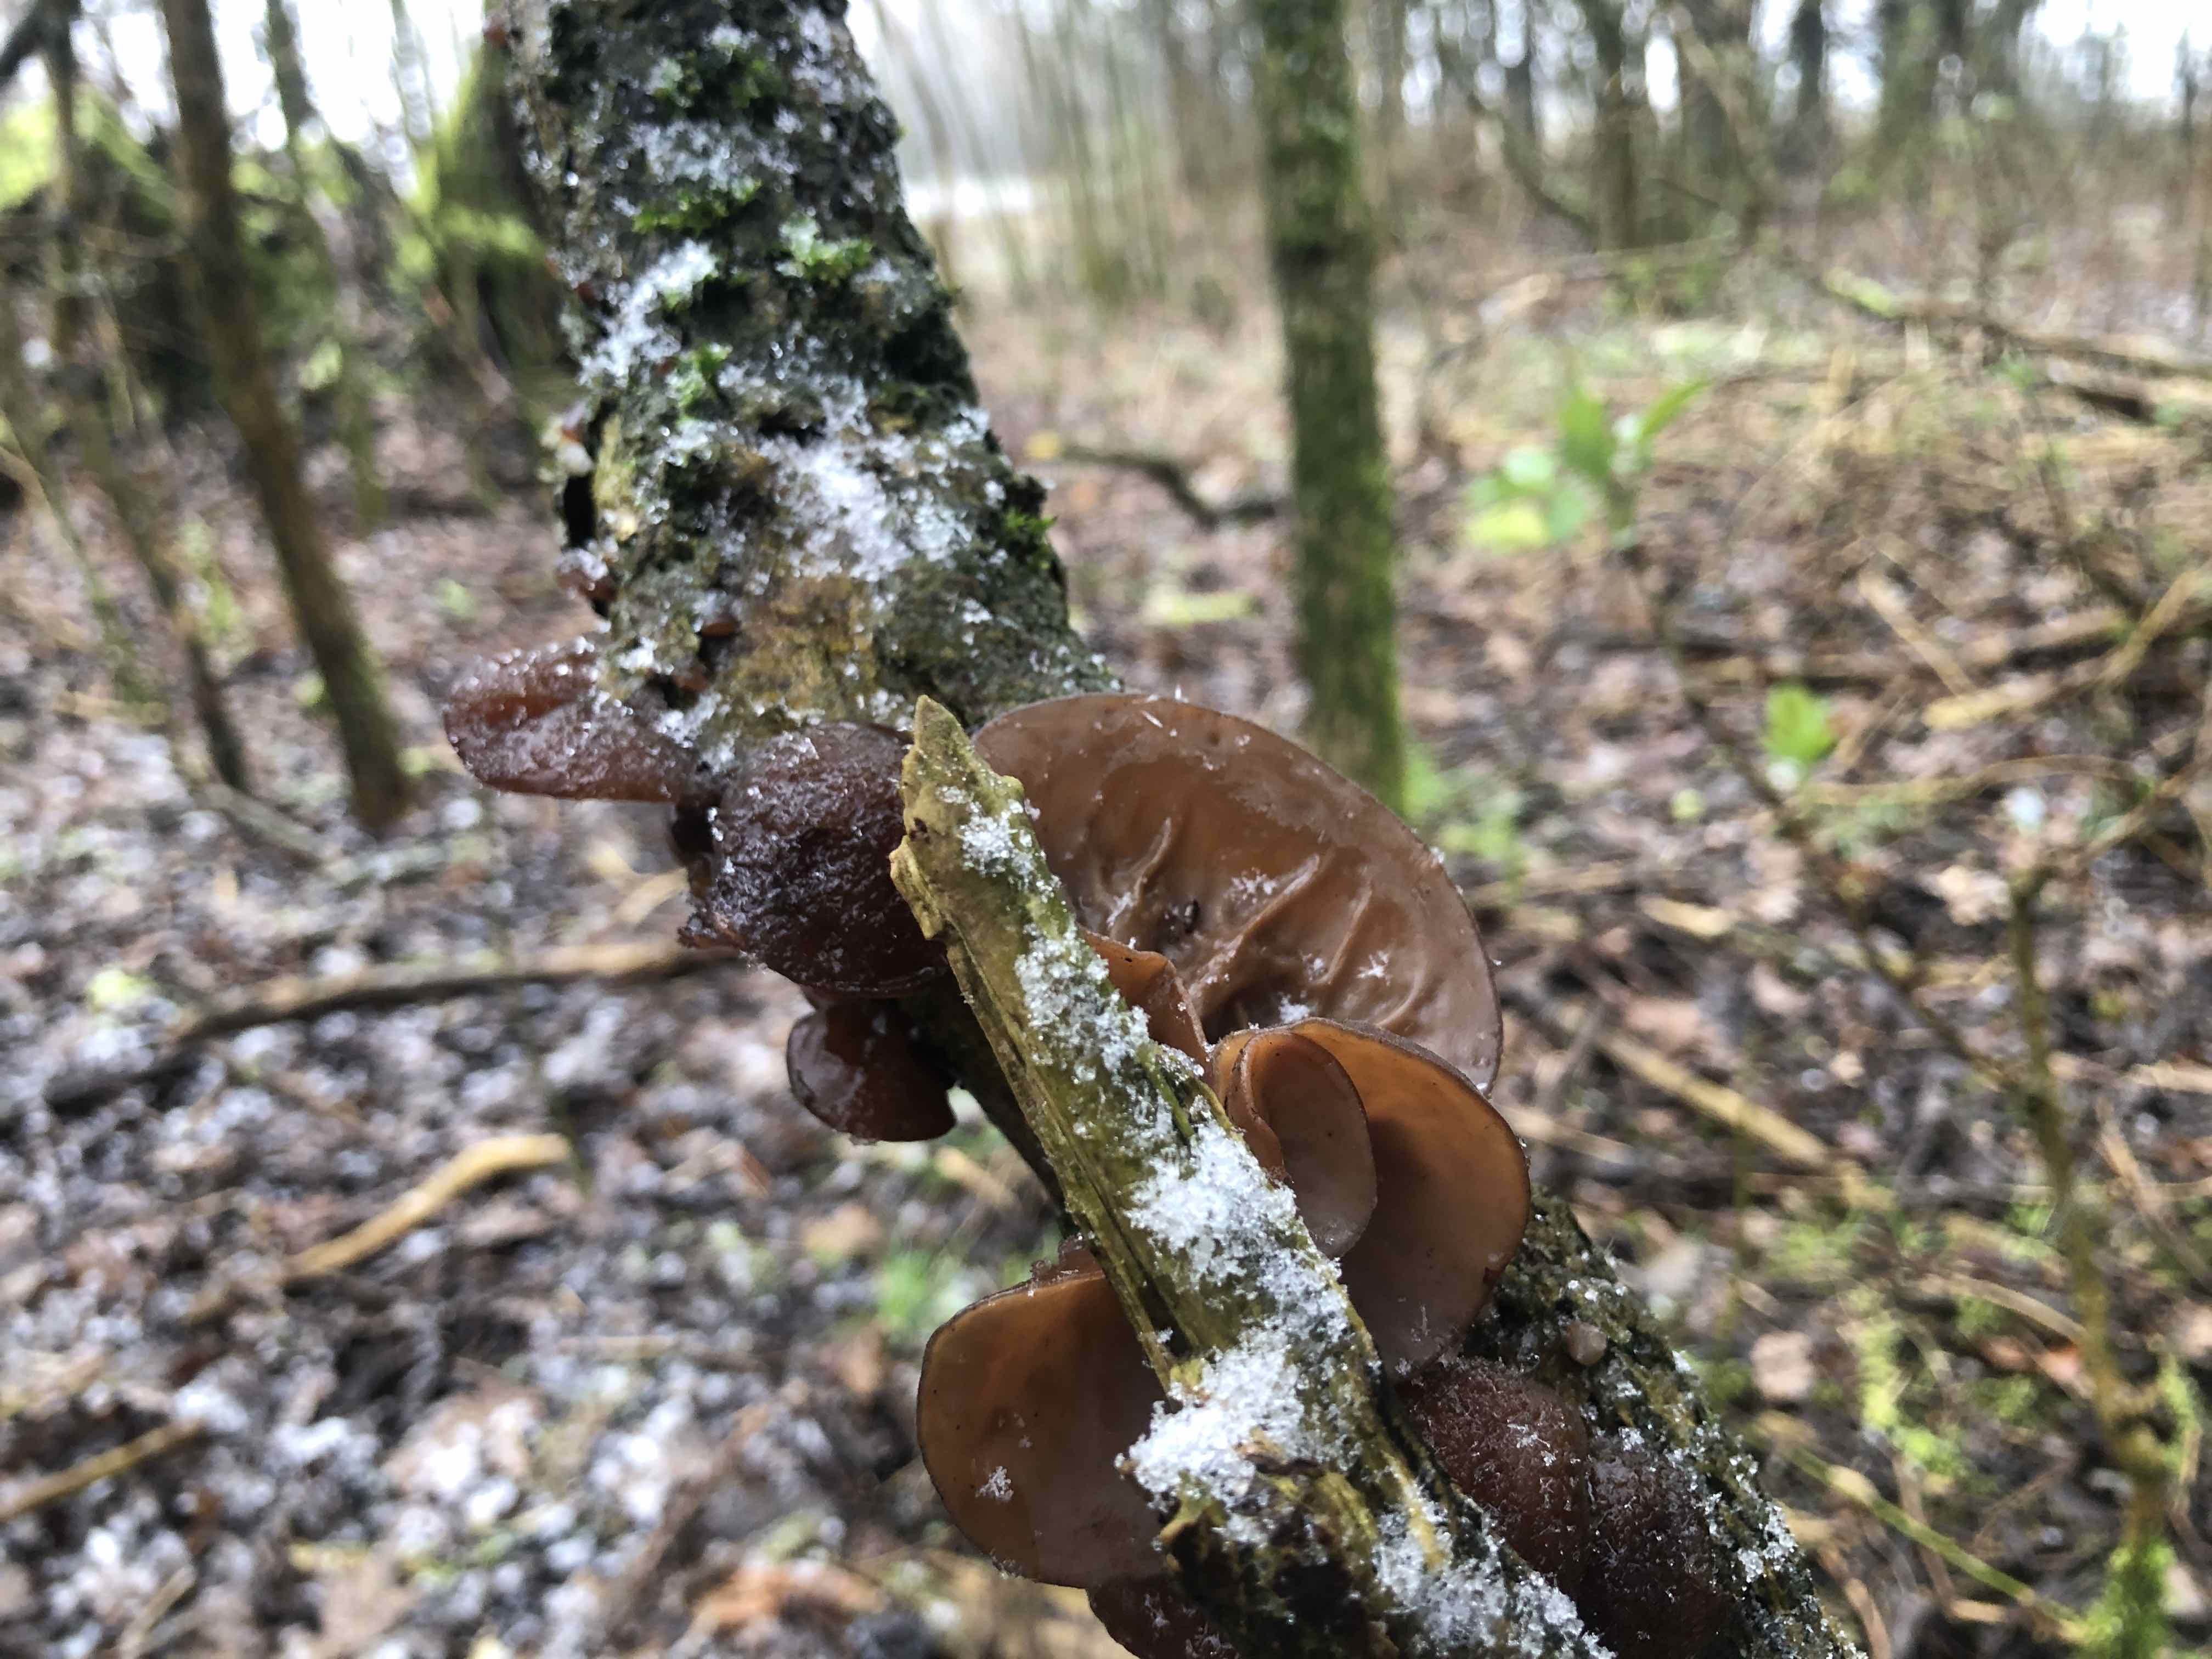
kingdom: Fungi
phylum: Basidiomycota
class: Agaricomycetes
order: Auriculariales
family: Auriculariaceae
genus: Auricularia
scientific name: Auricularia auricula-judae
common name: almindelig judasøre
